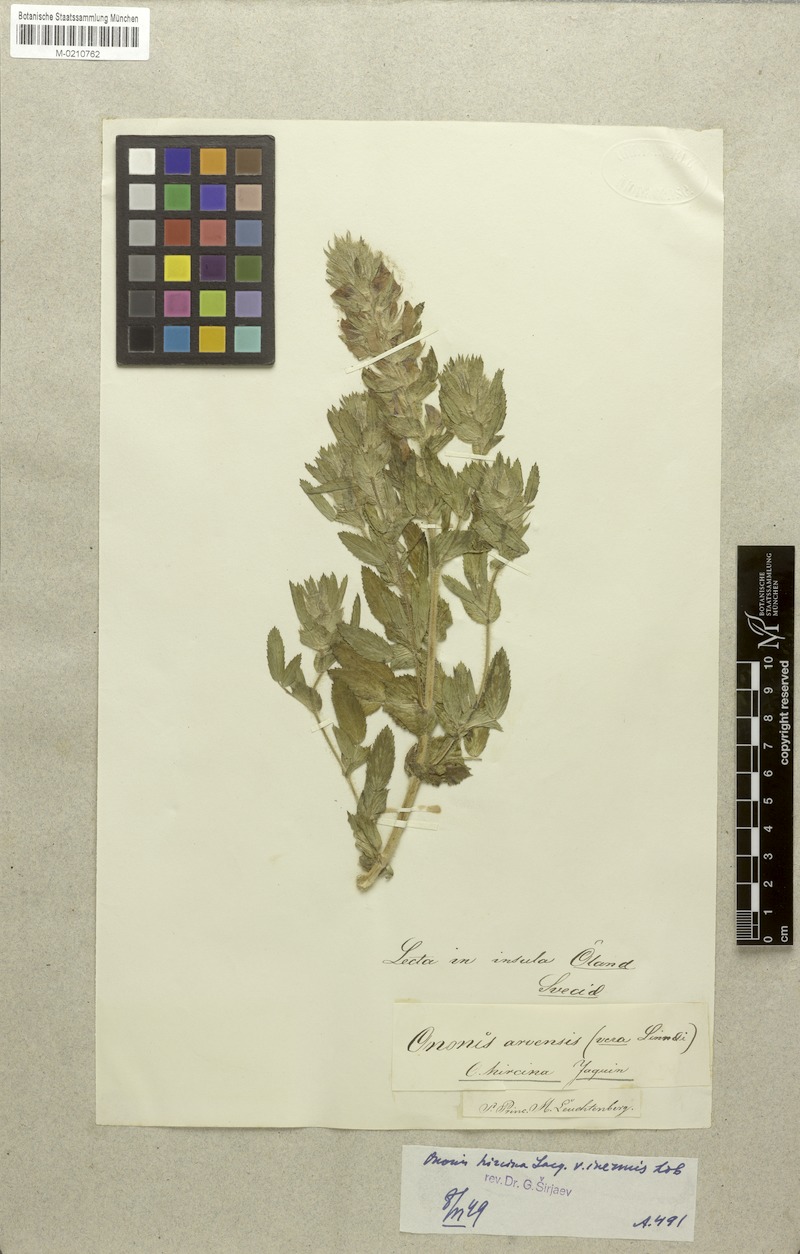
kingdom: Plantae
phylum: Tracheophyta
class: Magnoliopsida
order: Fabales
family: Fabaceae
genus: Ononis
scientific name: Ononis arvensis
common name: Field restharrow
